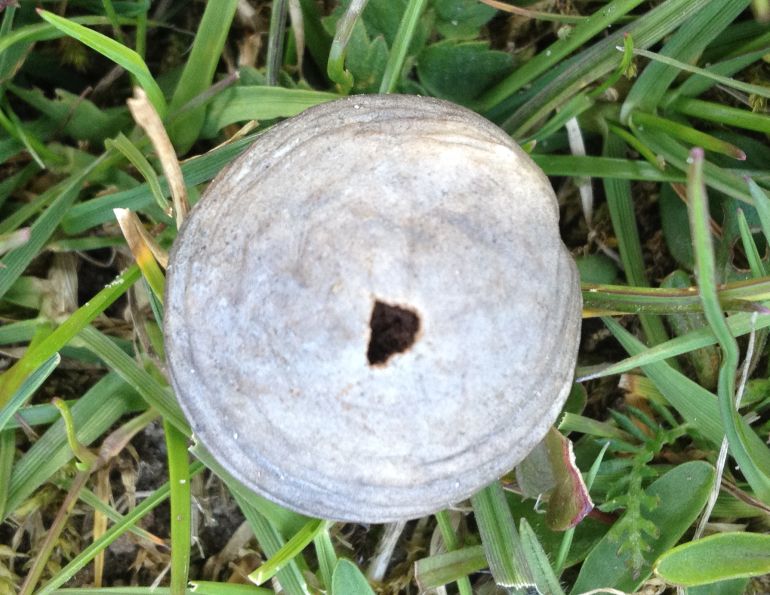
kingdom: Fungi
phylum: Basidiomycota
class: Agaricomycetes
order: Agaricales
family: Lycoperdaceae
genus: Bovista
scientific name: Bovista plumbea
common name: blygrå bovist
